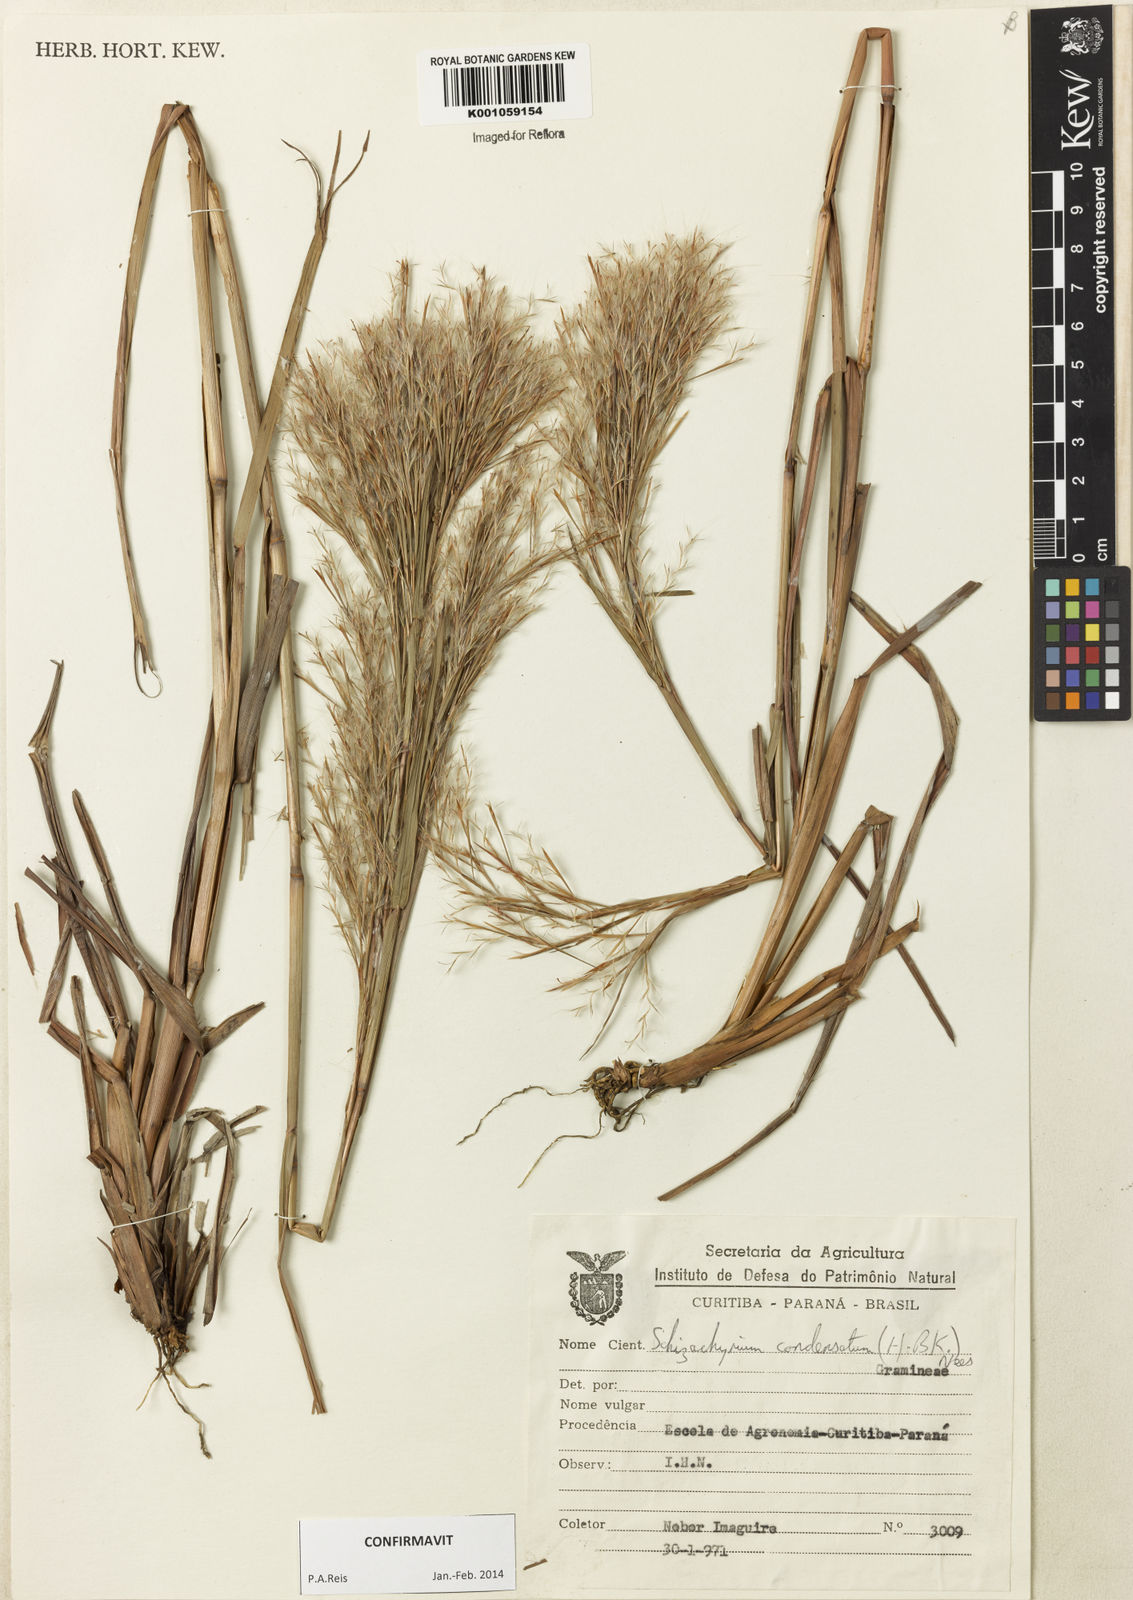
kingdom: Plantae
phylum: Tracheophyta
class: Liliopsida
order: Poales
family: Poaceae
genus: Schizachyrium
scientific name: Schizachyrium condensatum
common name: Bush beardgrass
